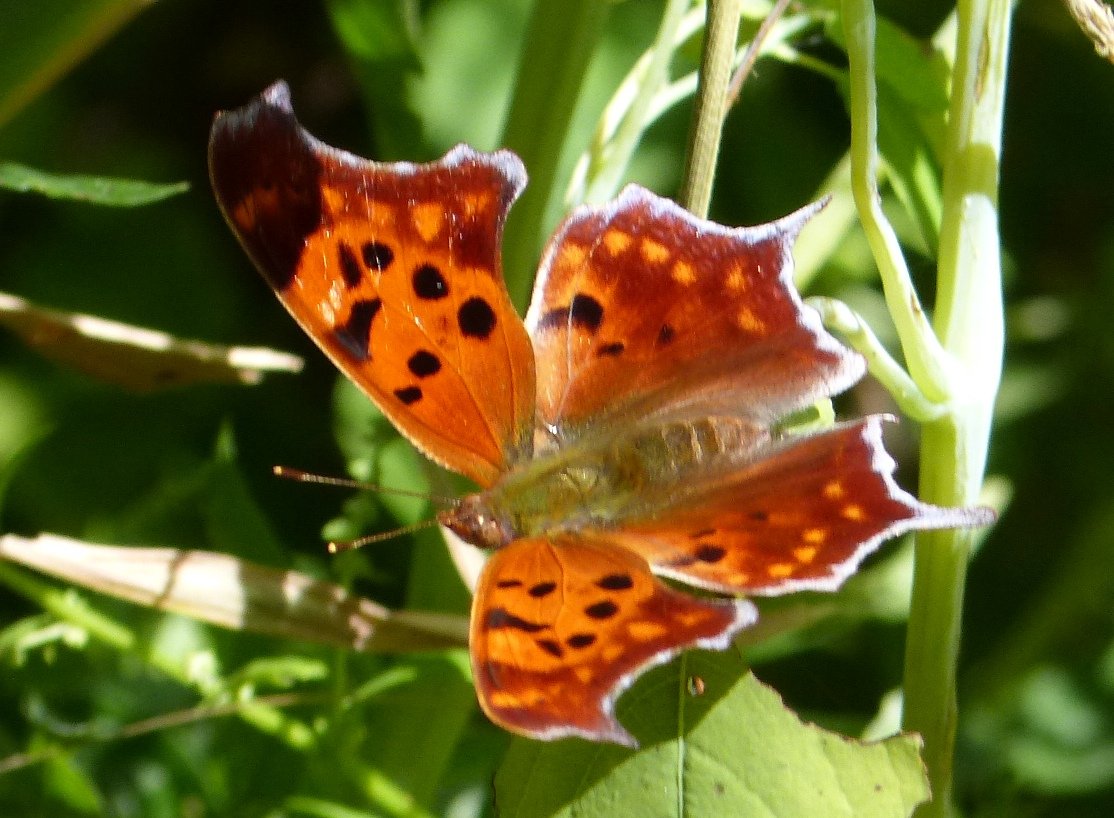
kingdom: Animalia
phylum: Arthropoda
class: Insecta
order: Lepidoptera
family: Nymphalidae
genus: Polygonia
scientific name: Polygonia interrogationis
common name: Question Mark
